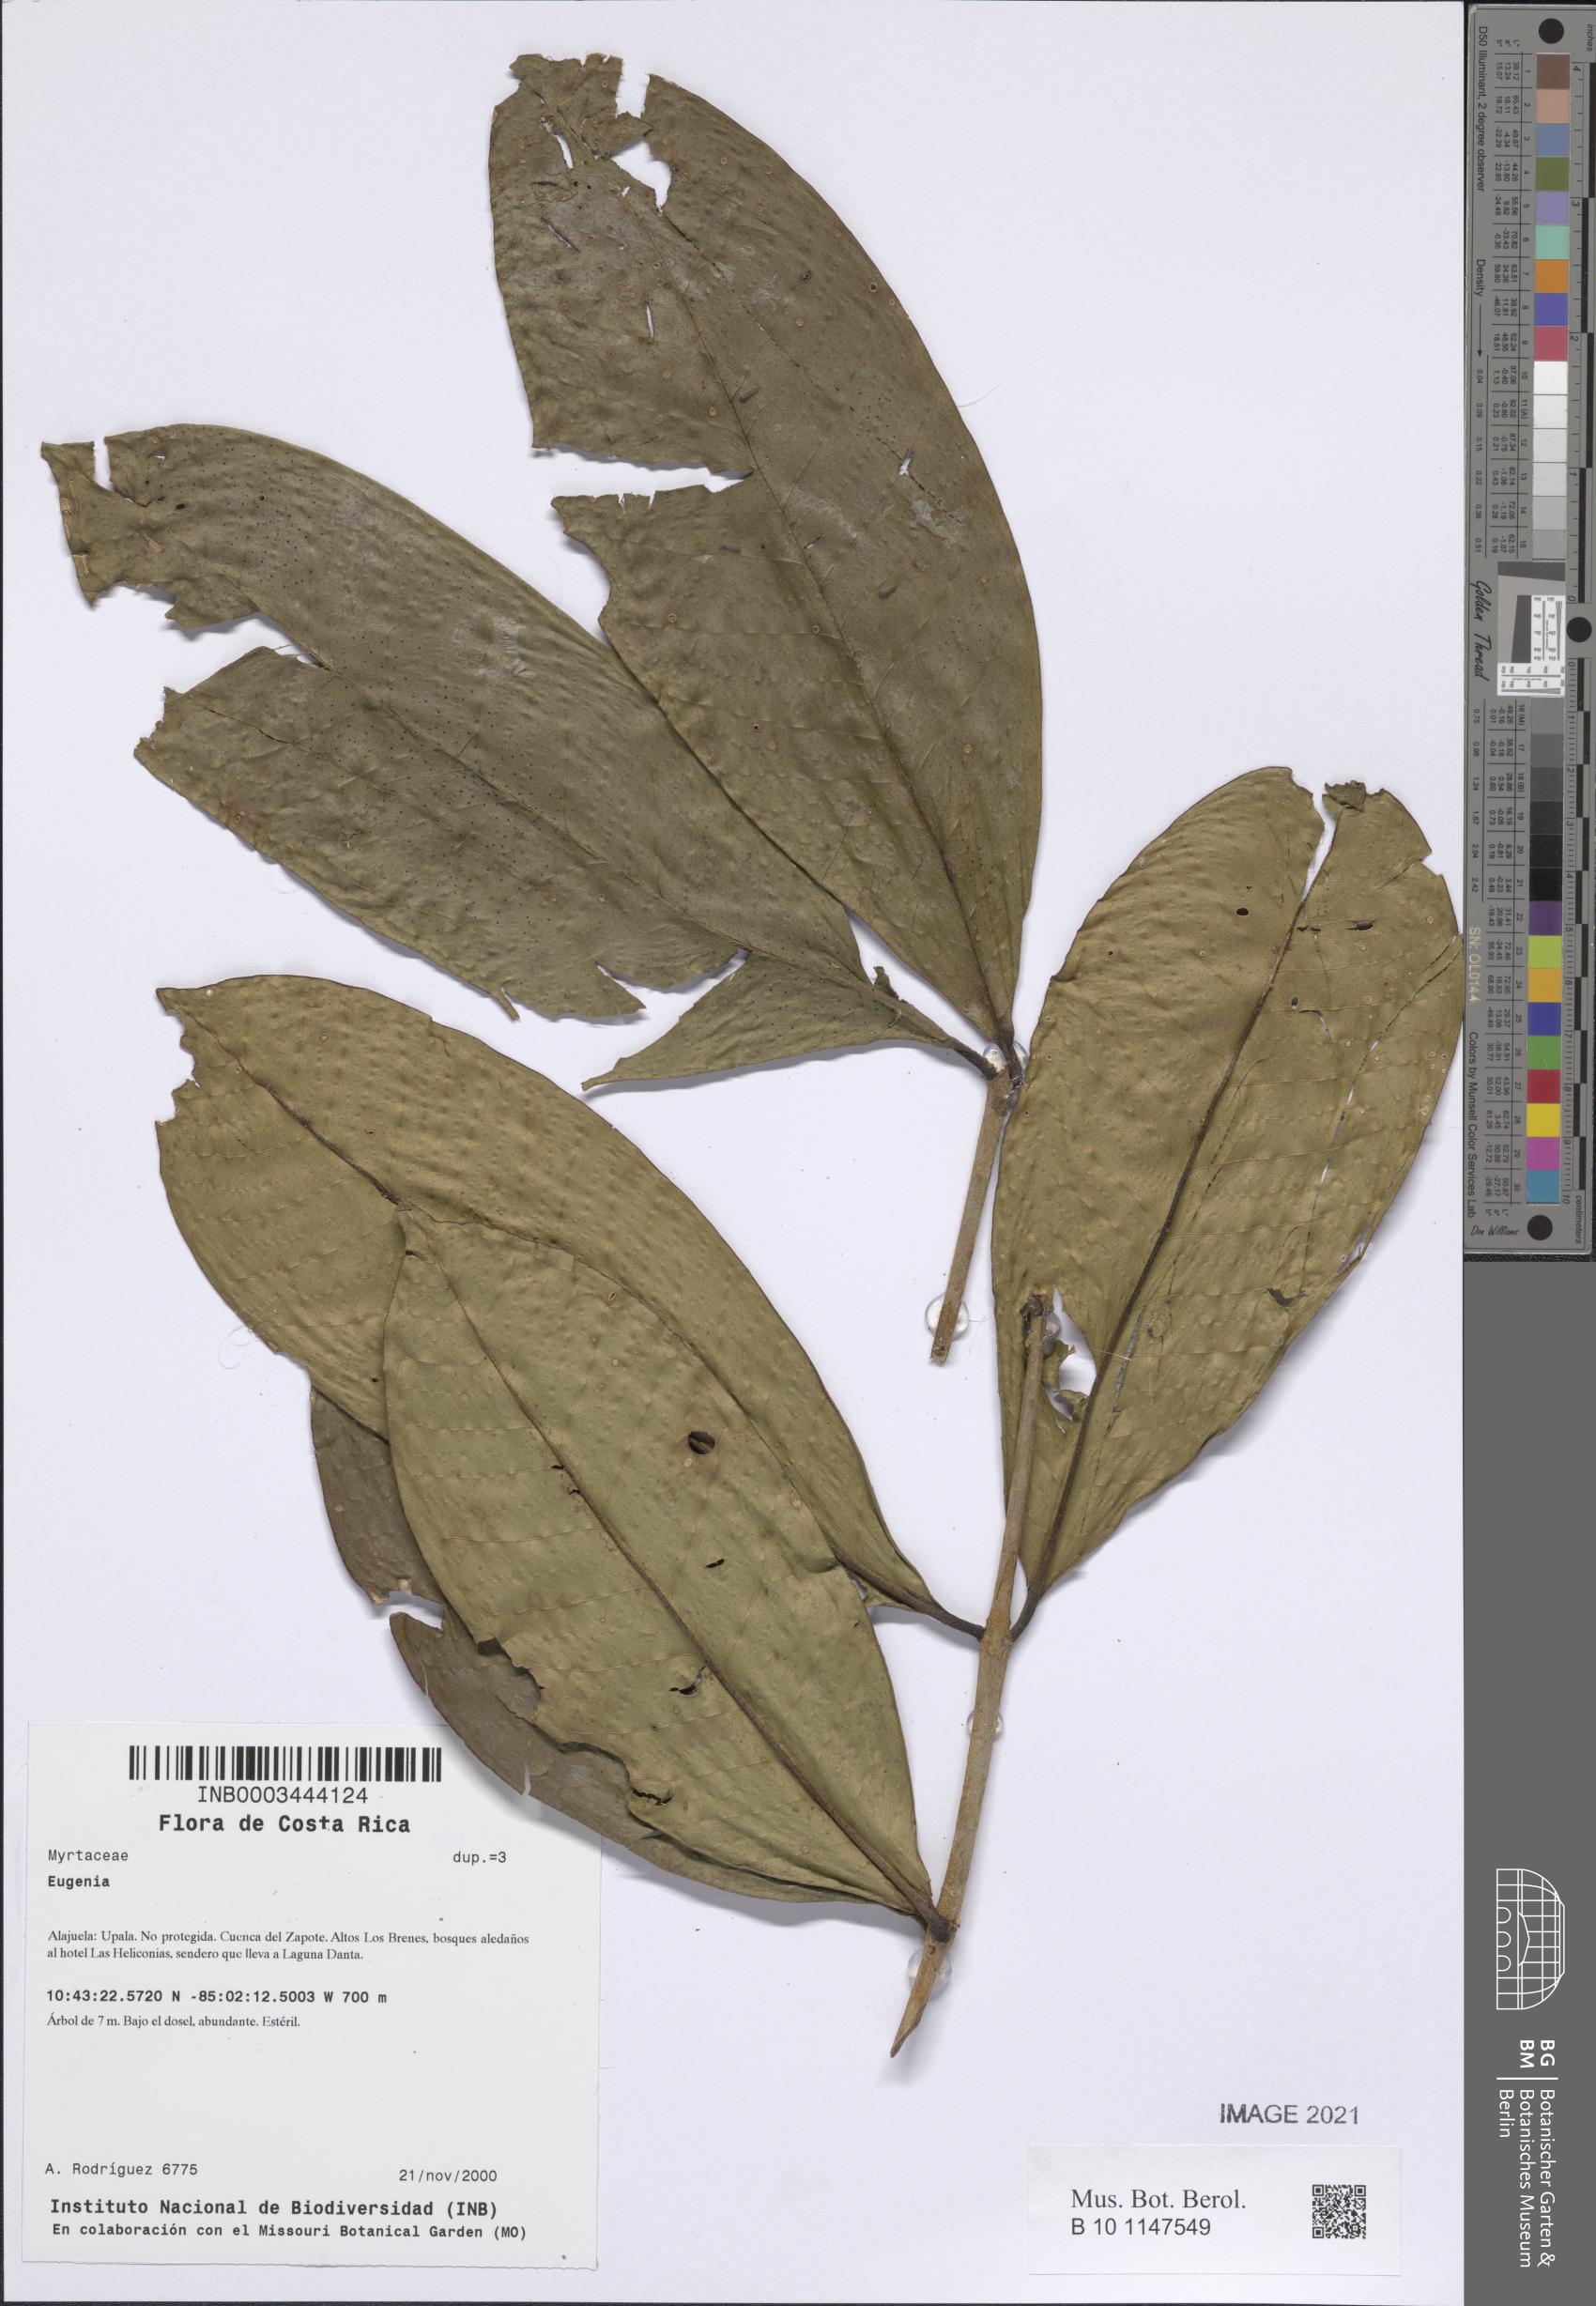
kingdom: Plantae
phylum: Tracheophyta
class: Magnoliopsida
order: Myrtales
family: Myrtaceae
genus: Eugenia
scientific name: Eugenia
